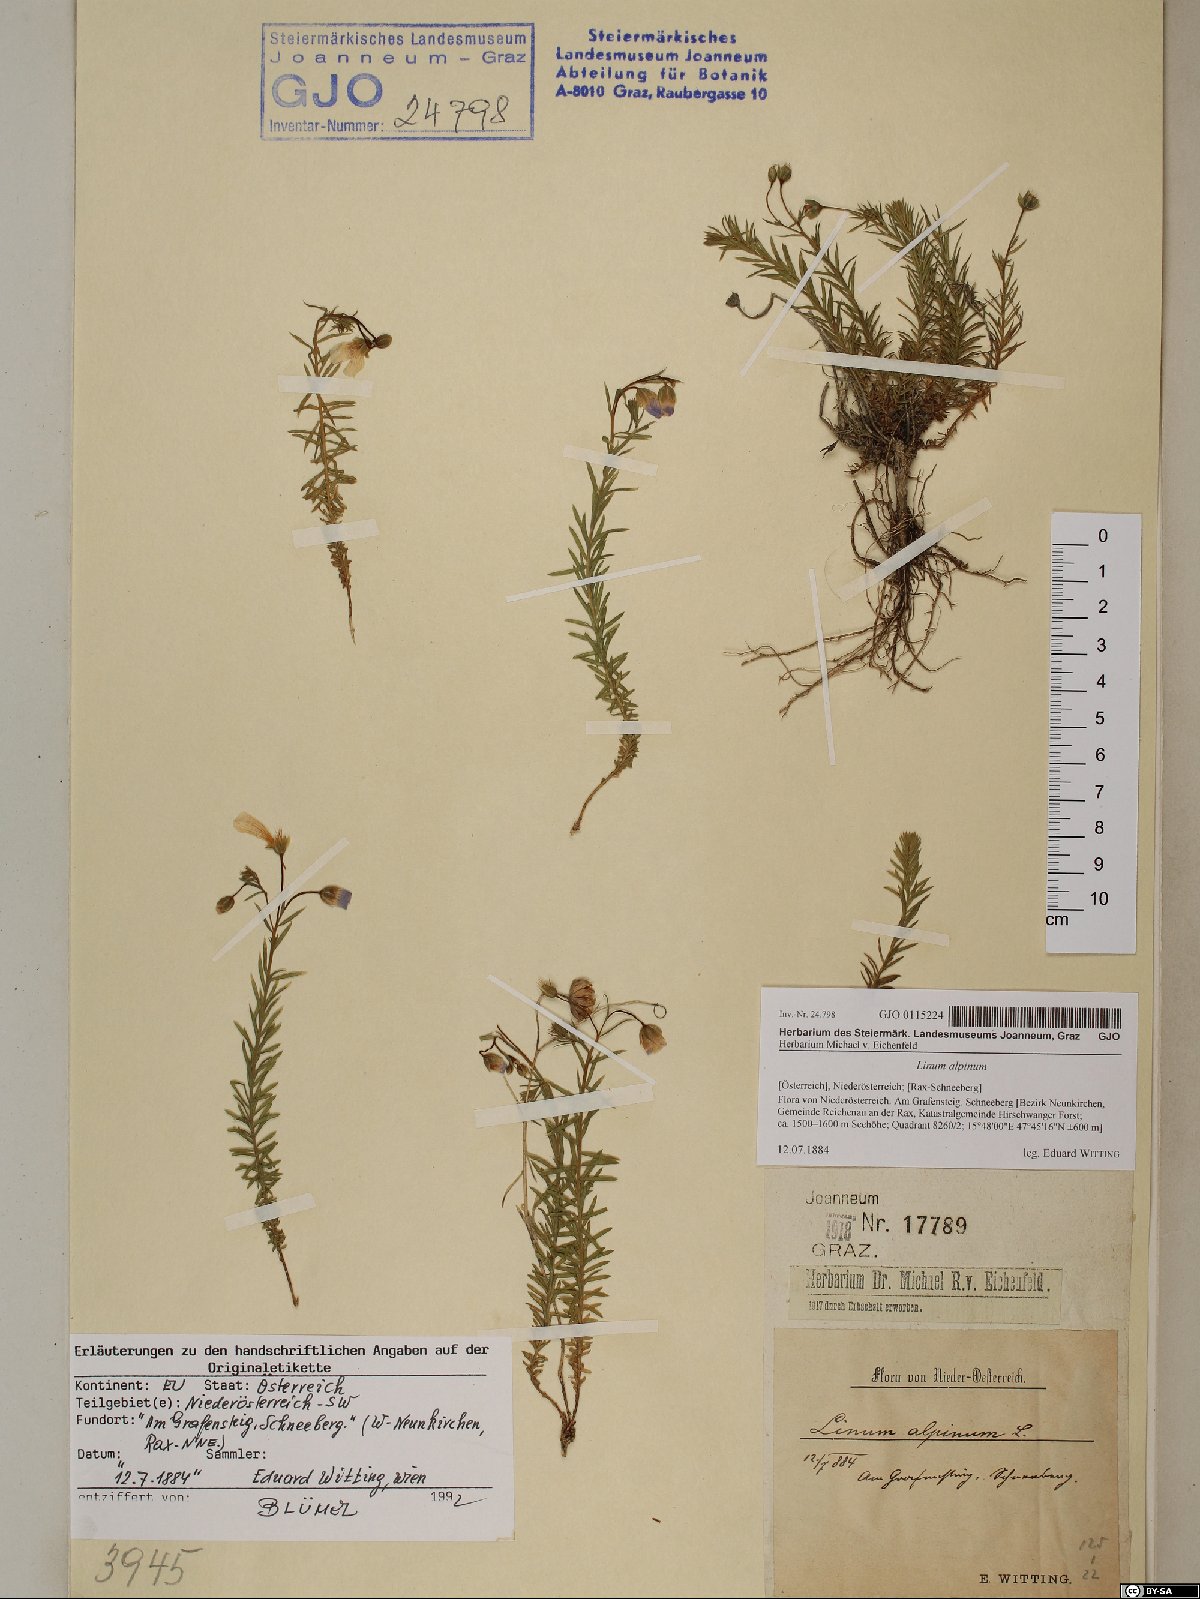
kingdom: Plantae
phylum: Tracheophyta
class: Magnoliopsida
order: Malpighiales
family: Linaceae
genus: Linum
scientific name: Linum alpinum
